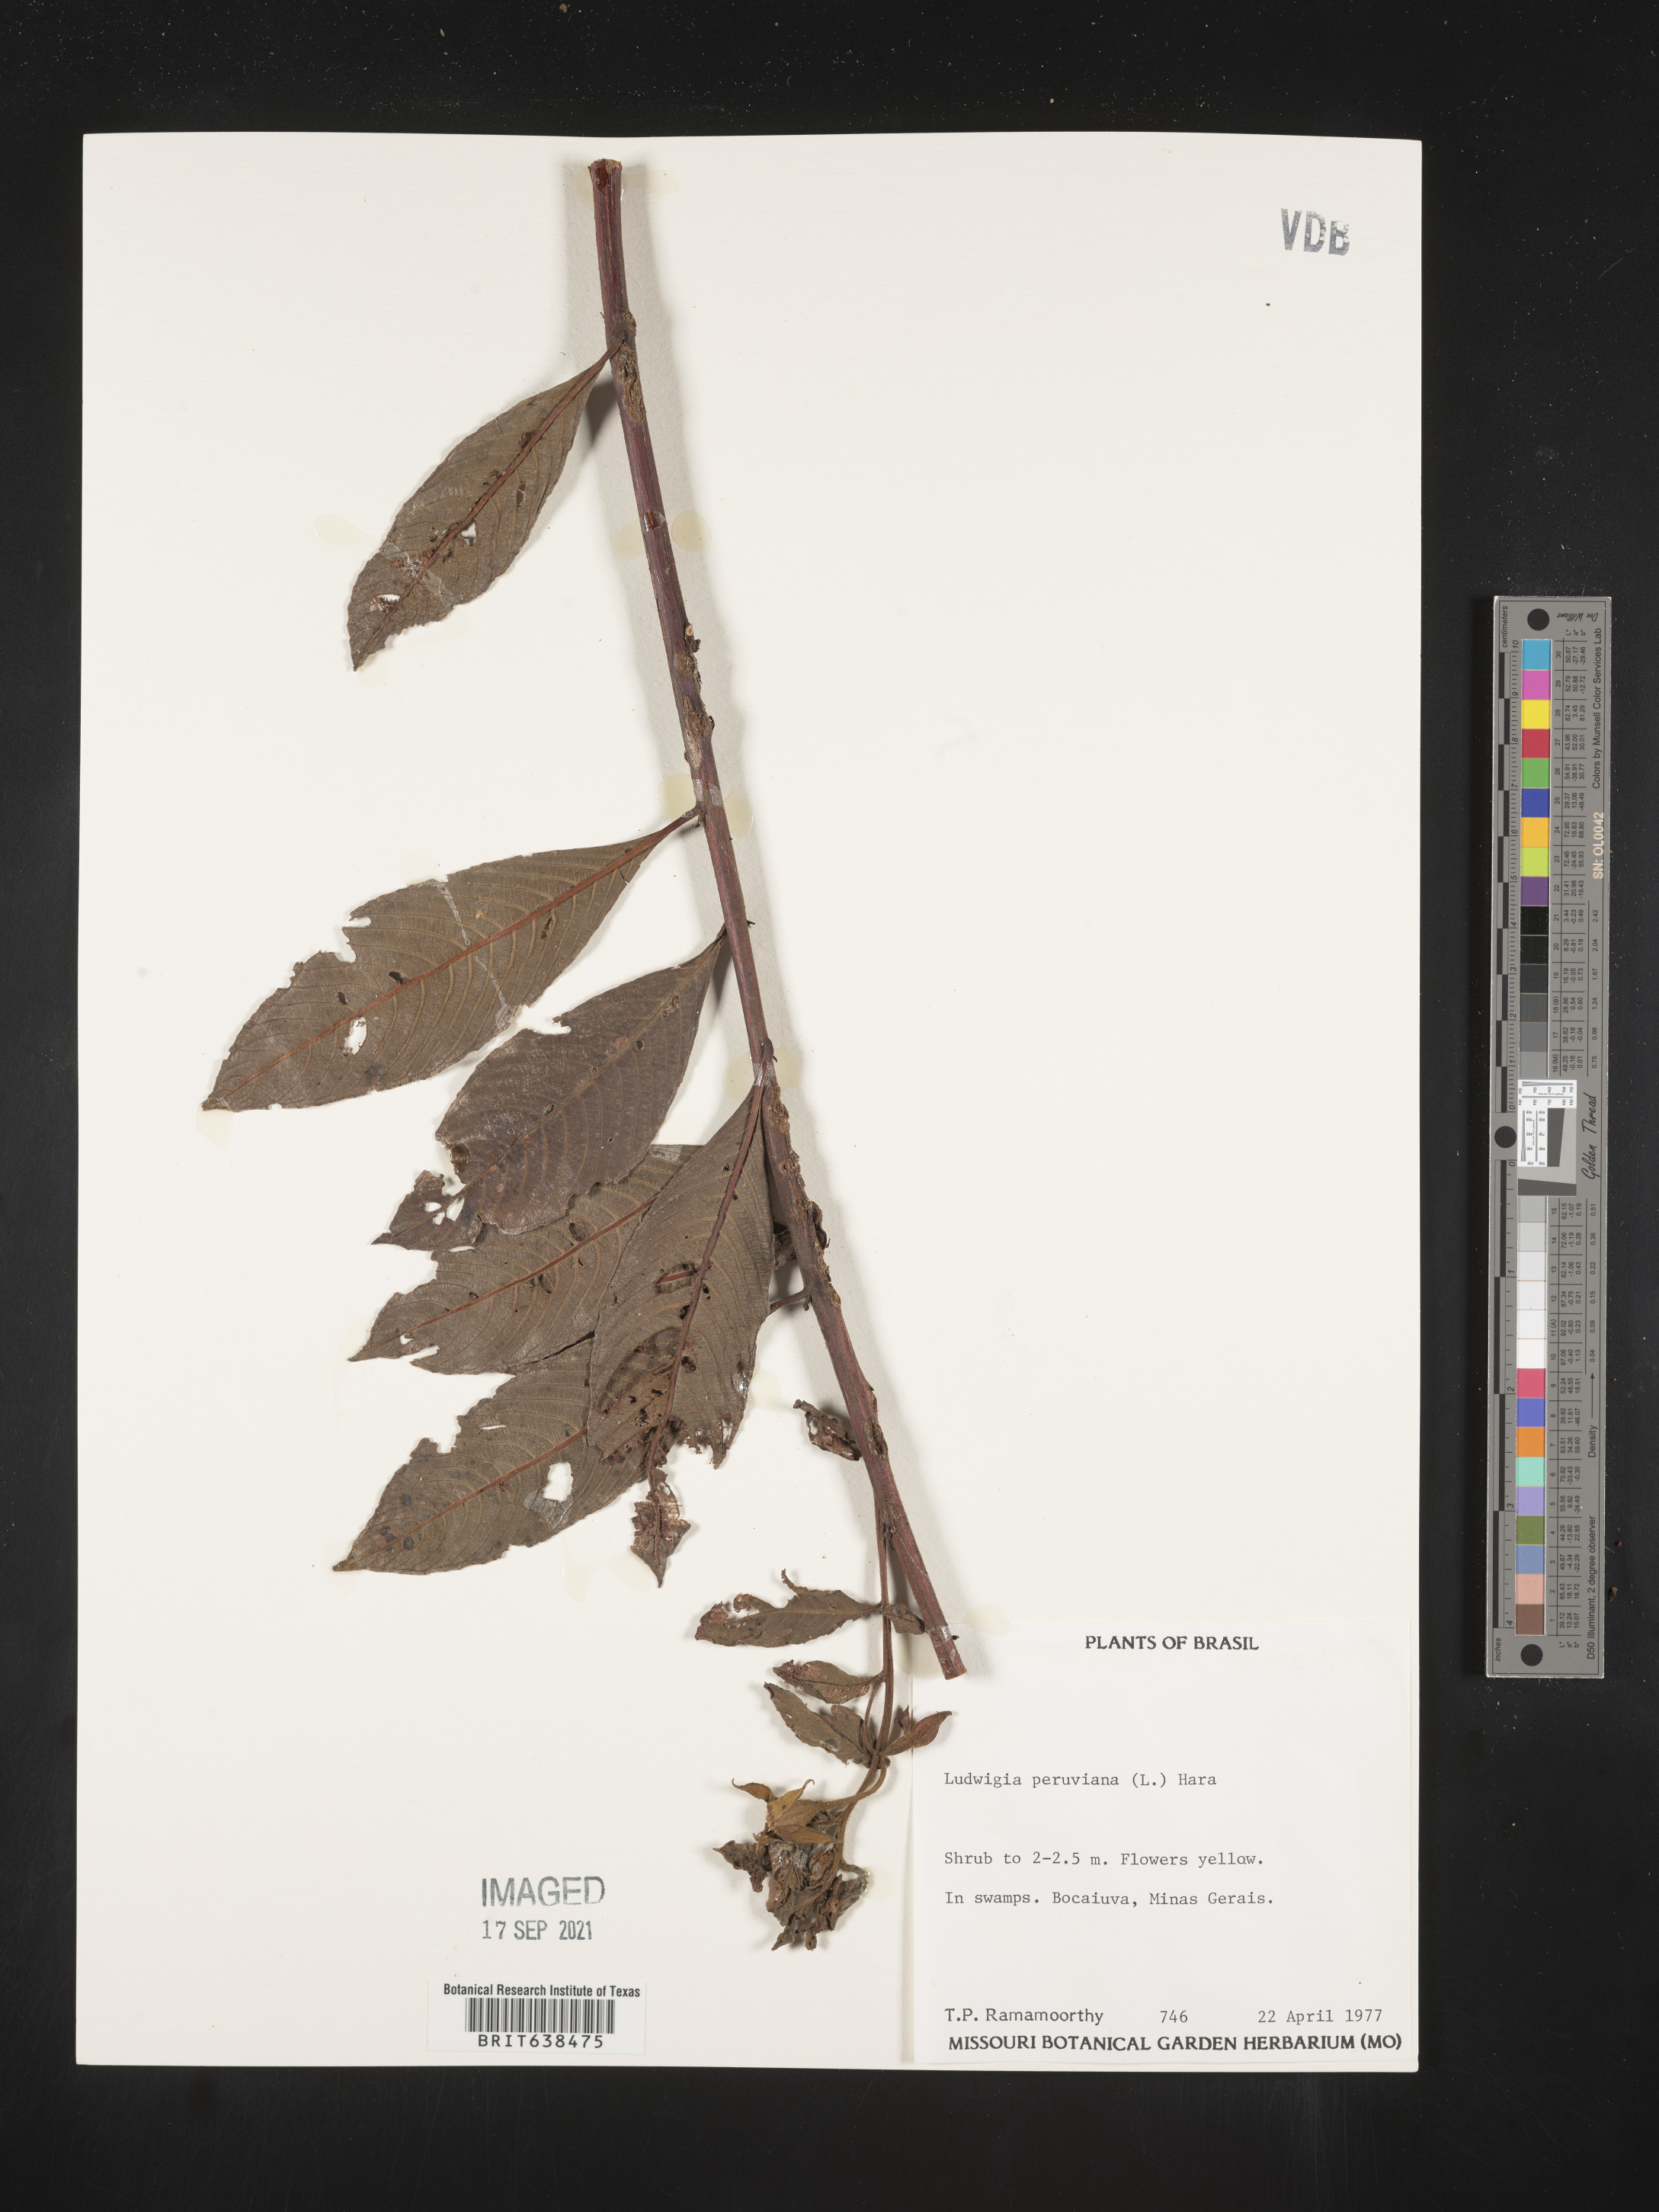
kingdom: Plantae
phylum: Tracheophyta
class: Magnoliopsida
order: Myrtales
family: Onagraceae
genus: Ludwigia
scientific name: Ludwigia
